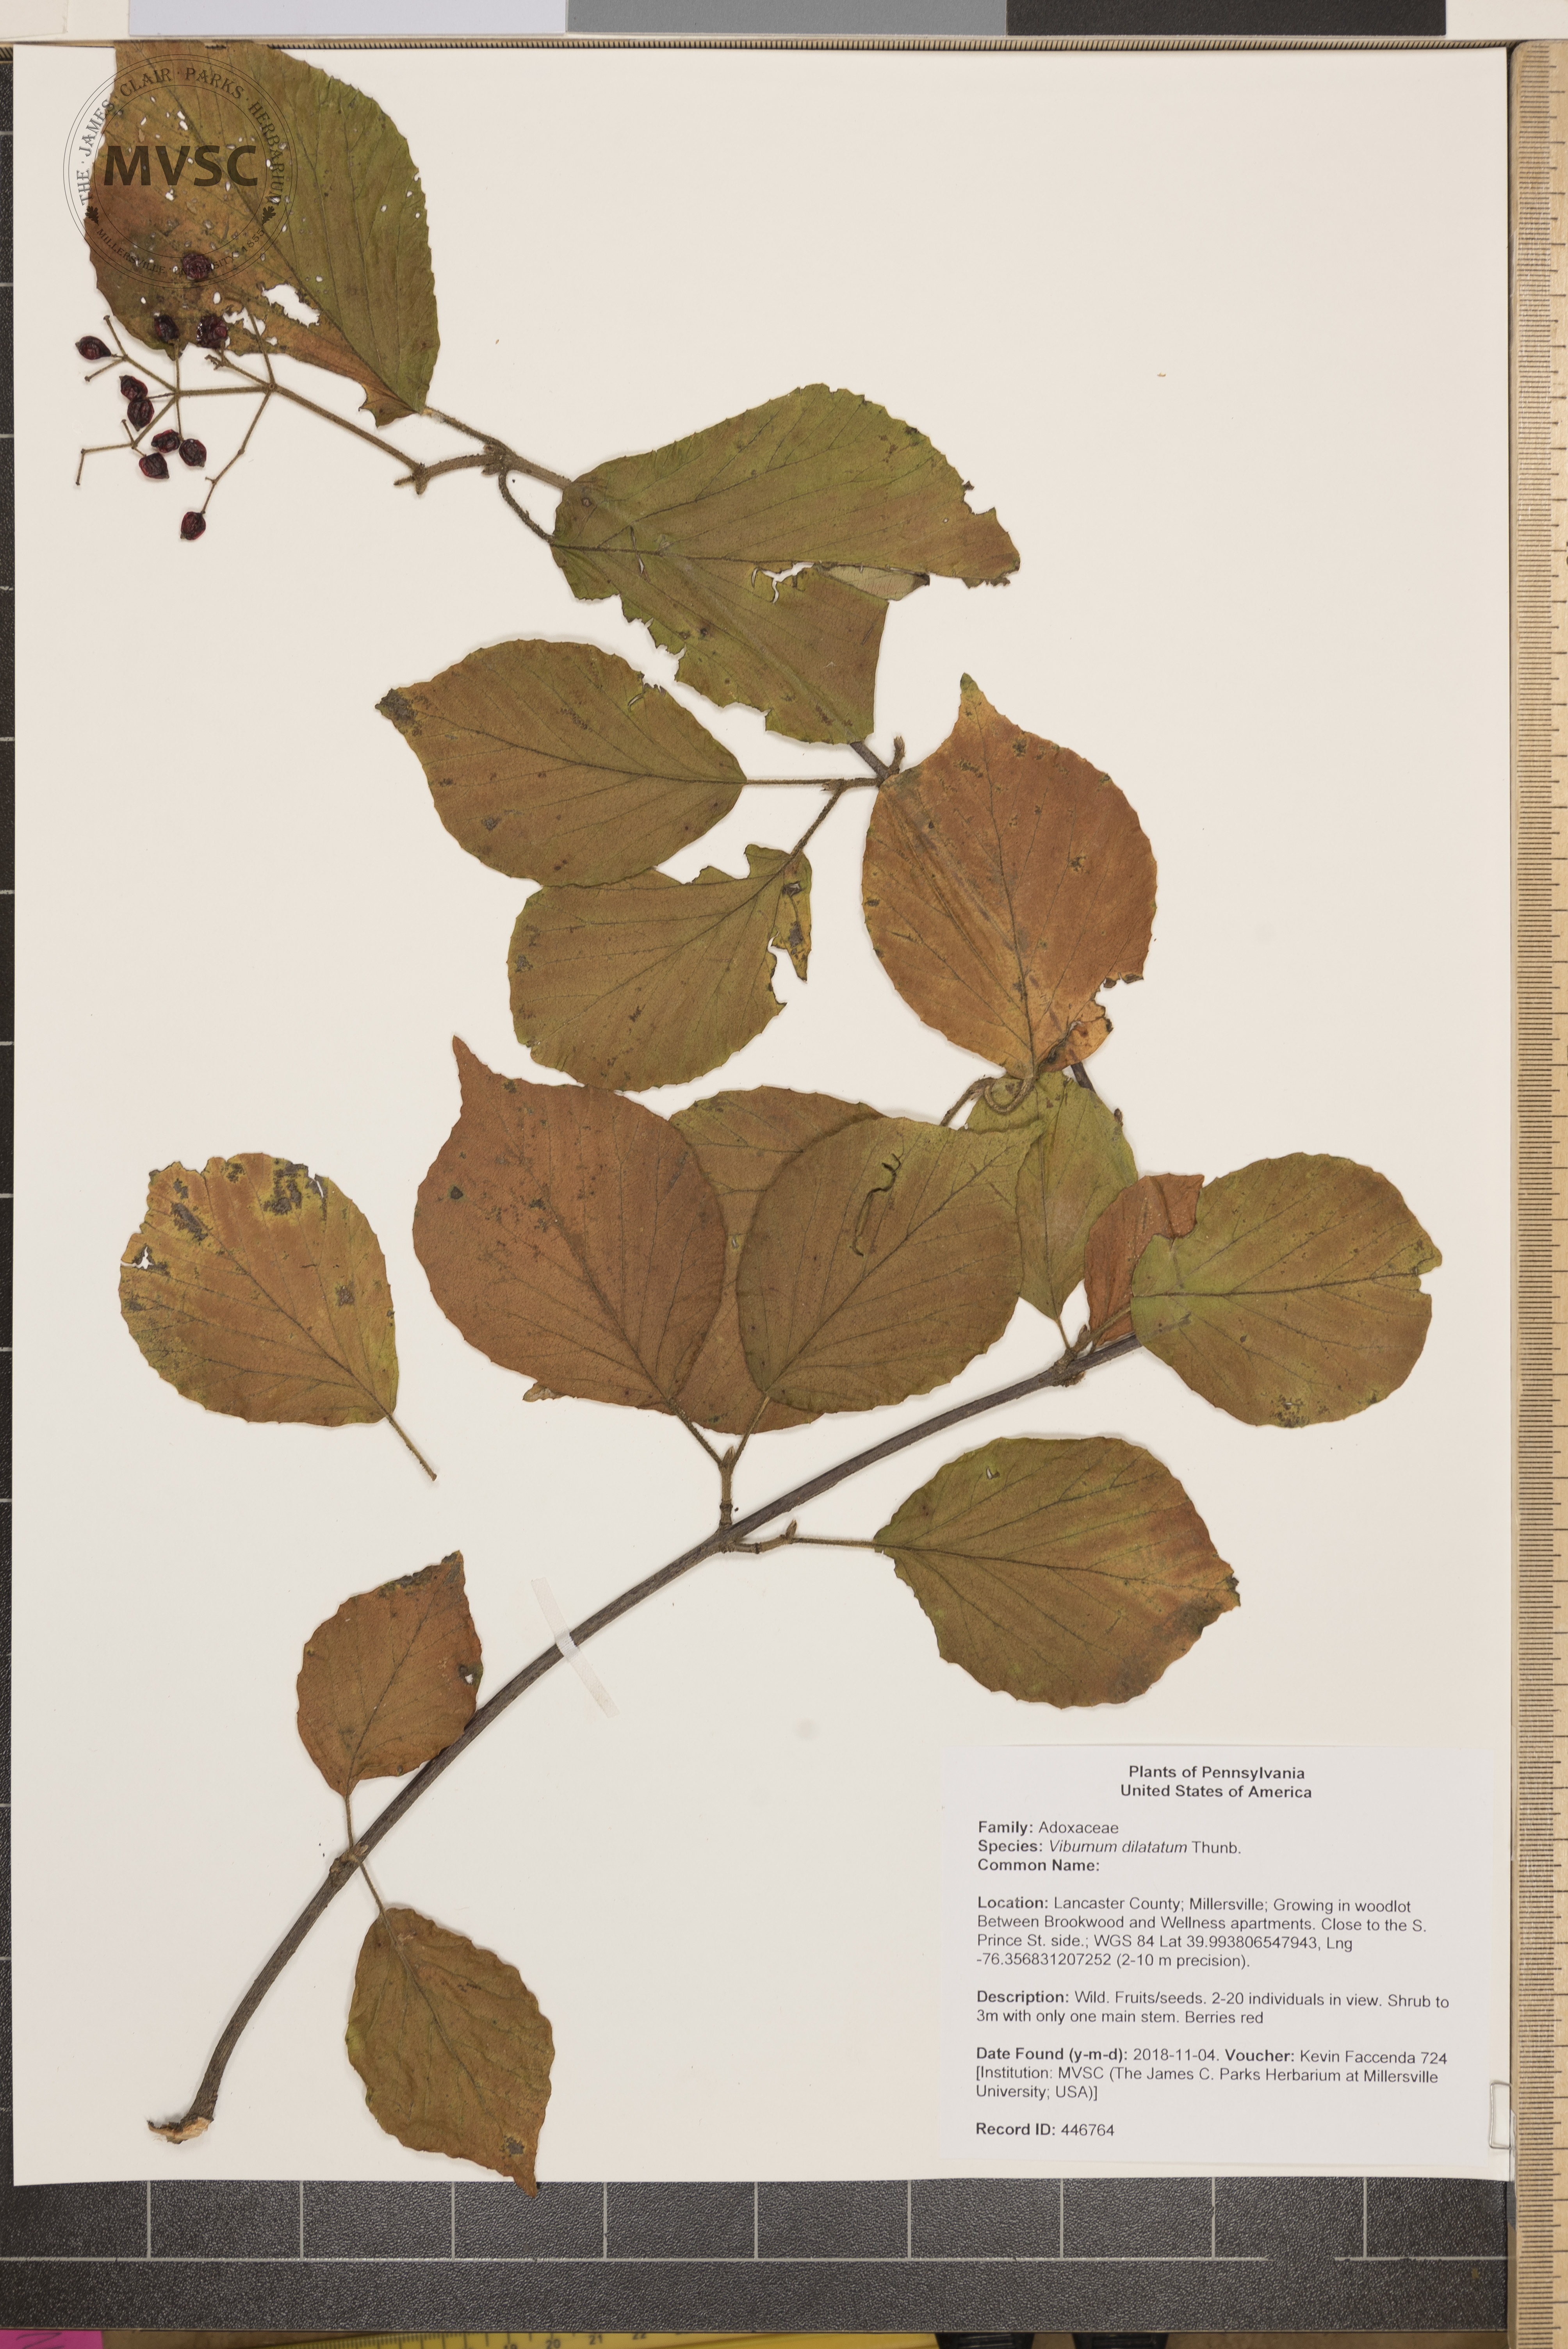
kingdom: Plantae
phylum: Tracheophyta
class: Magnoliopsida
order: Dipsacales
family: Viburnaceae
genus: Viburnum
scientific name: Viburnum dilatatum
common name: Linden arrowwood
